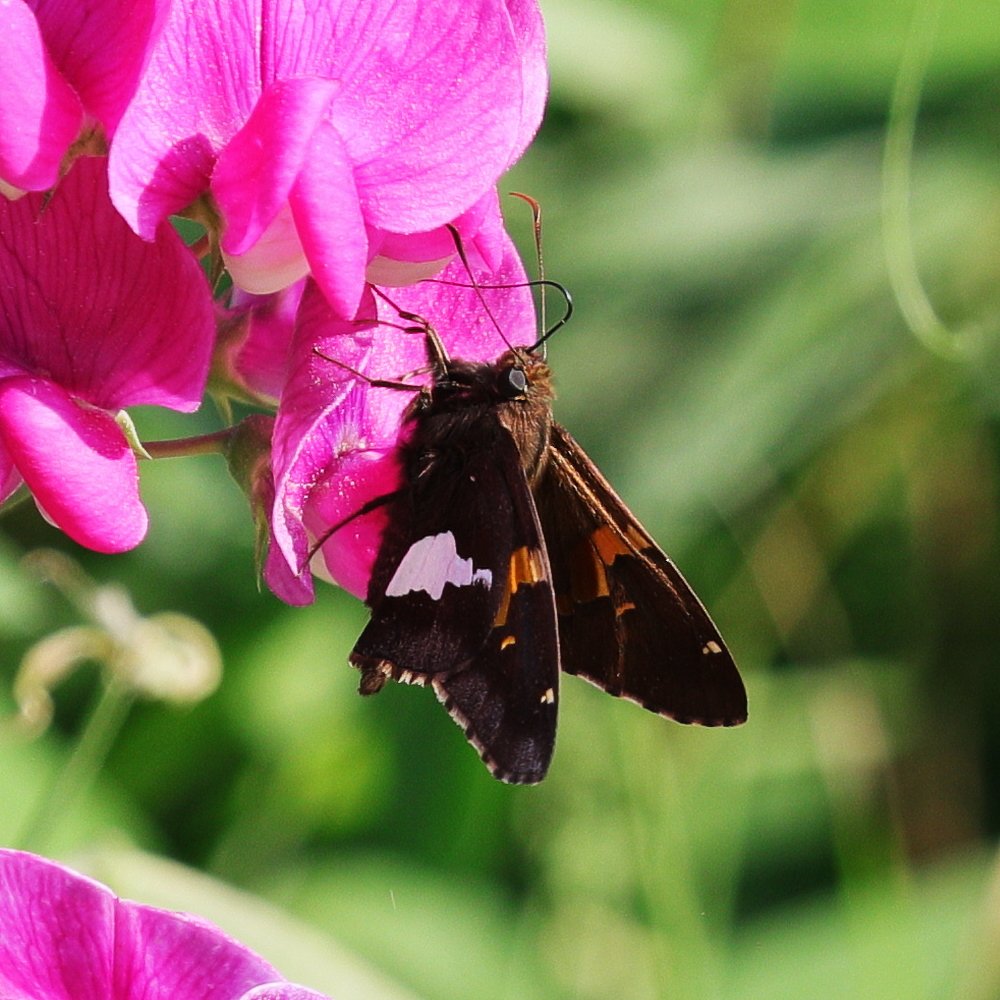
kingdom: Animalia
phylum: Arthropoda
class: Insecta
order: Lepidoptera
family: Hesperiidae
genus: Epargyreus
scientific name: Epargyreus clarus
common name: Silver-spotted Skipper
